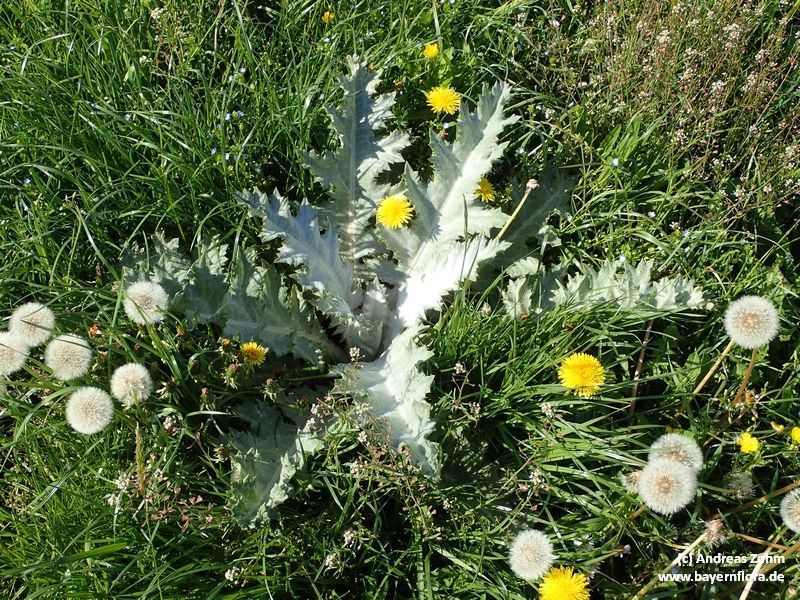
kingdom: Plantae
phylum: Tracheophyta
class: Magnoliopsida
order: Asterales
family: Asteraceae
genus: Onopordum
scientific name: Onopordum acanthium
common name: Scotch thistle
